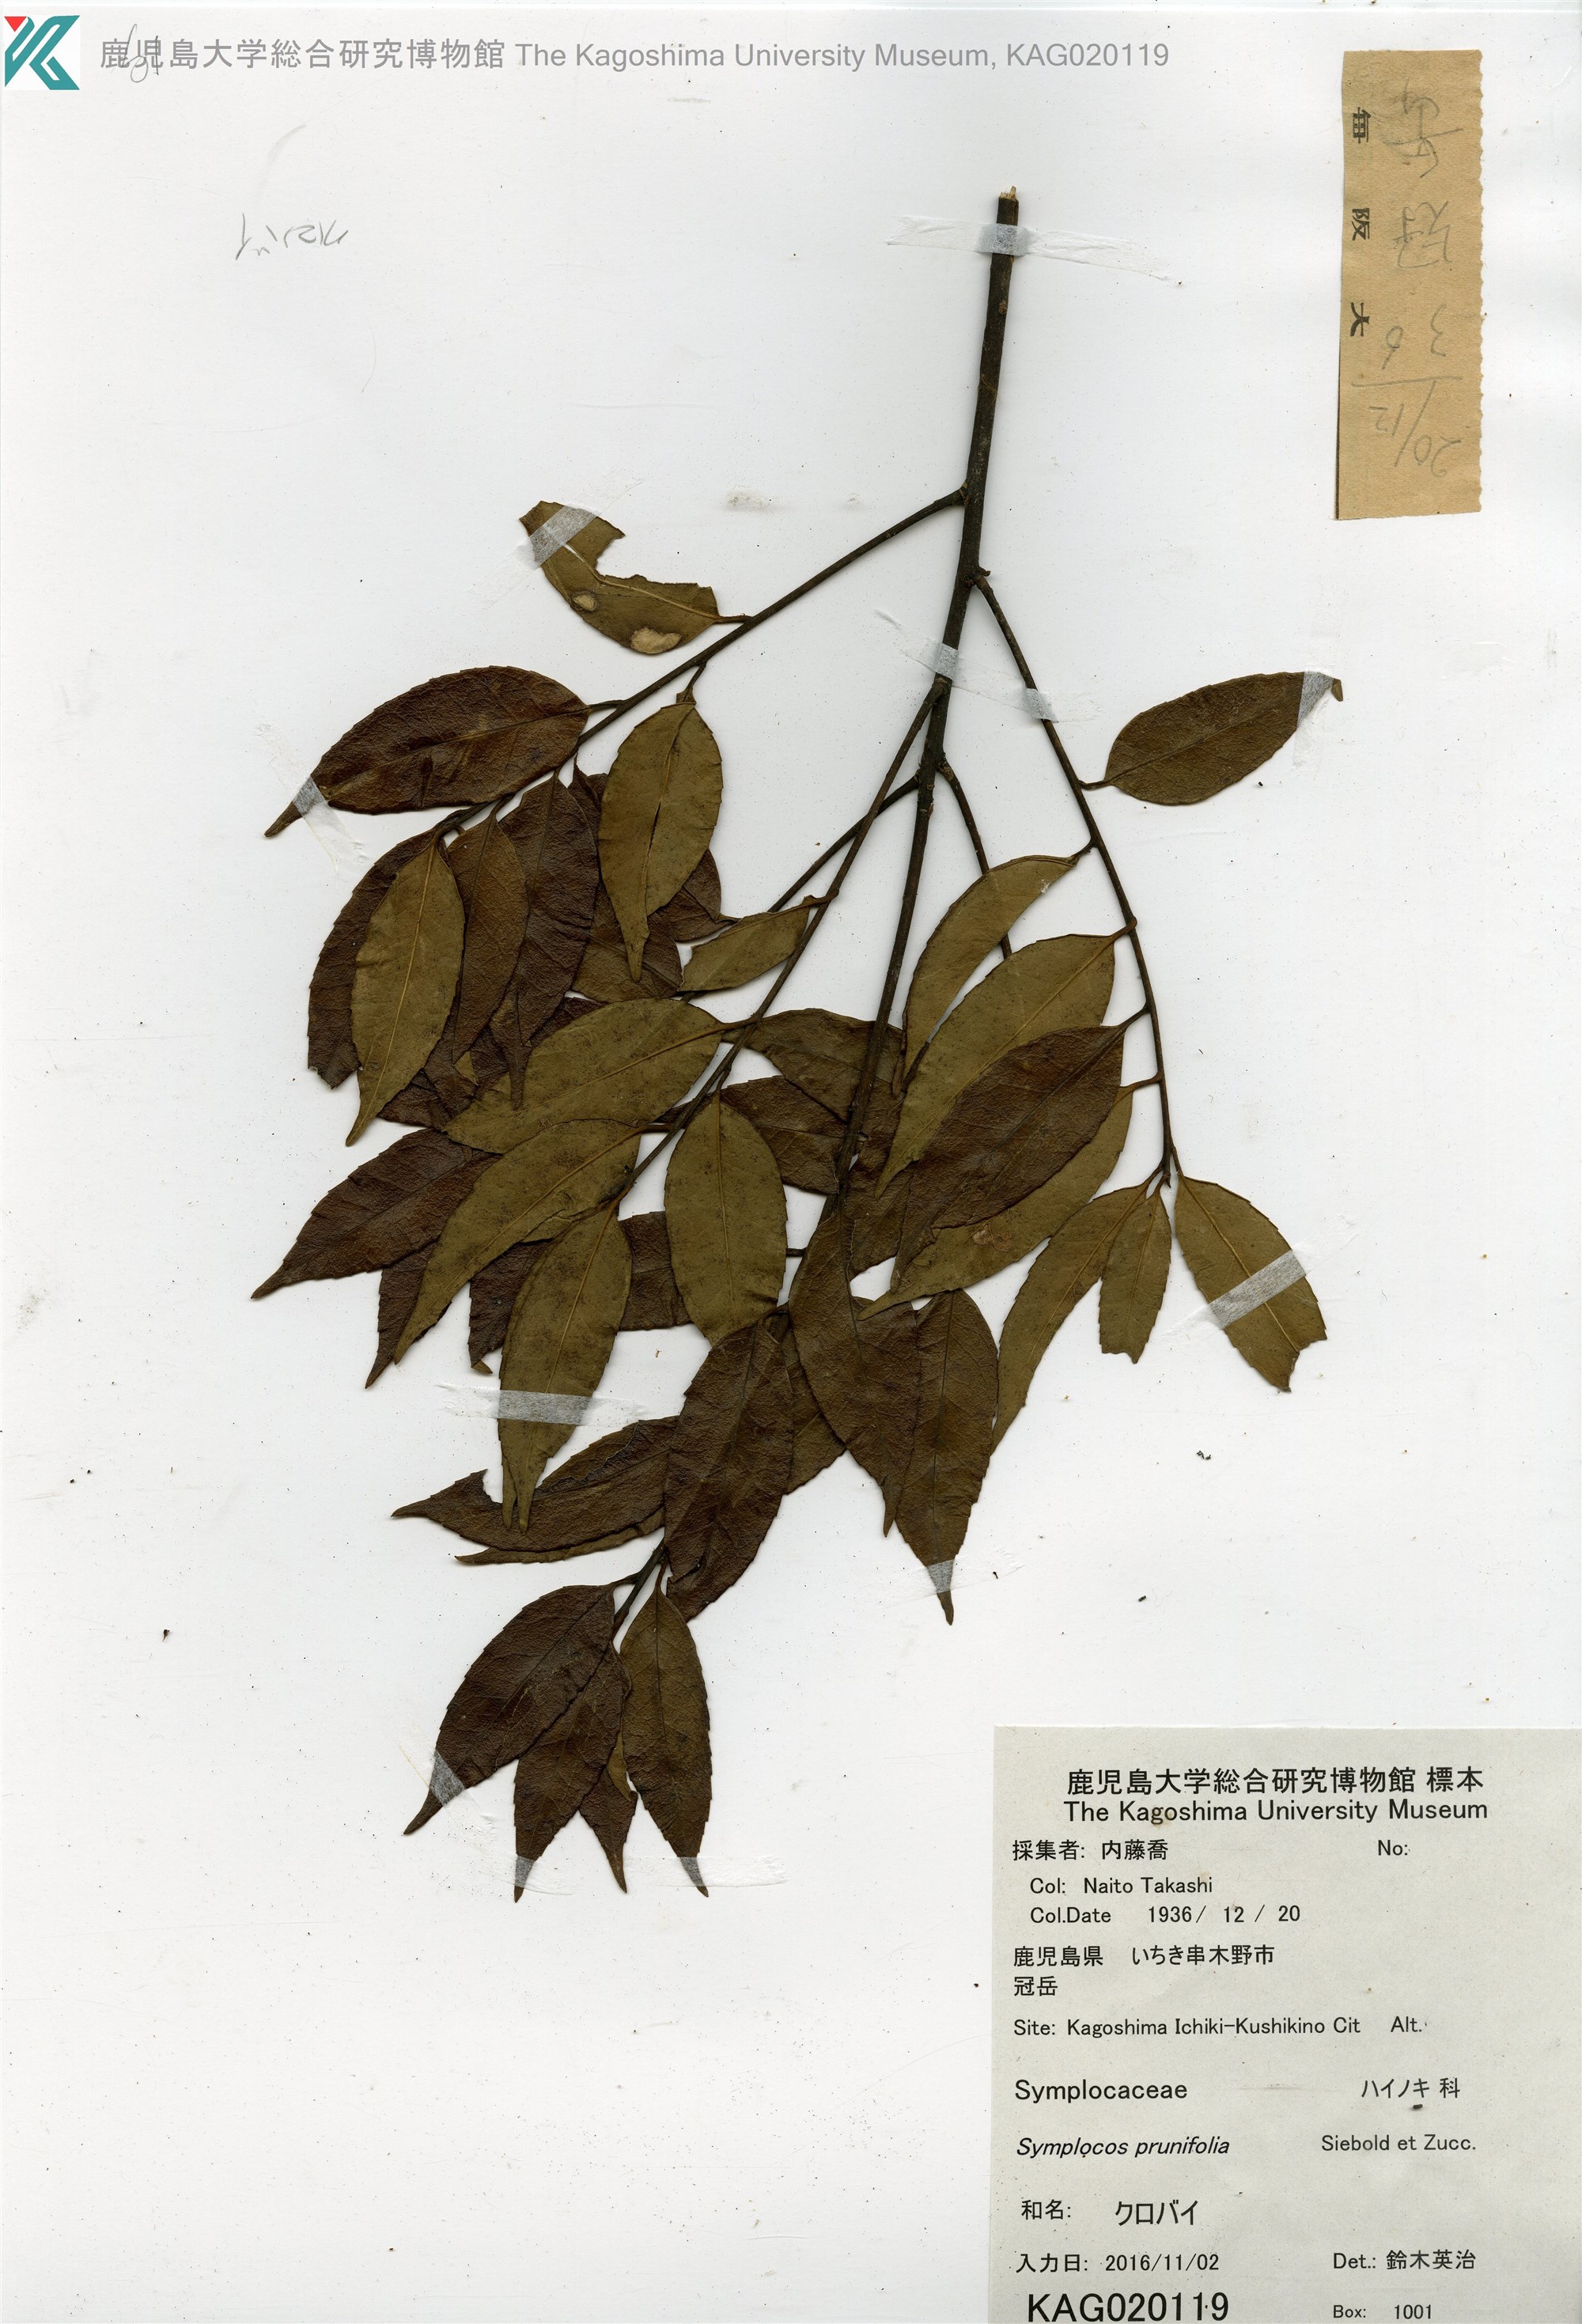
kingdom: Plantae
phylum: Tracheophyta
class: Magnoliopsida
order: Ericales
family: Symplocaceae
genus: Symplocos
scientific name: Symplocos sumuntia
